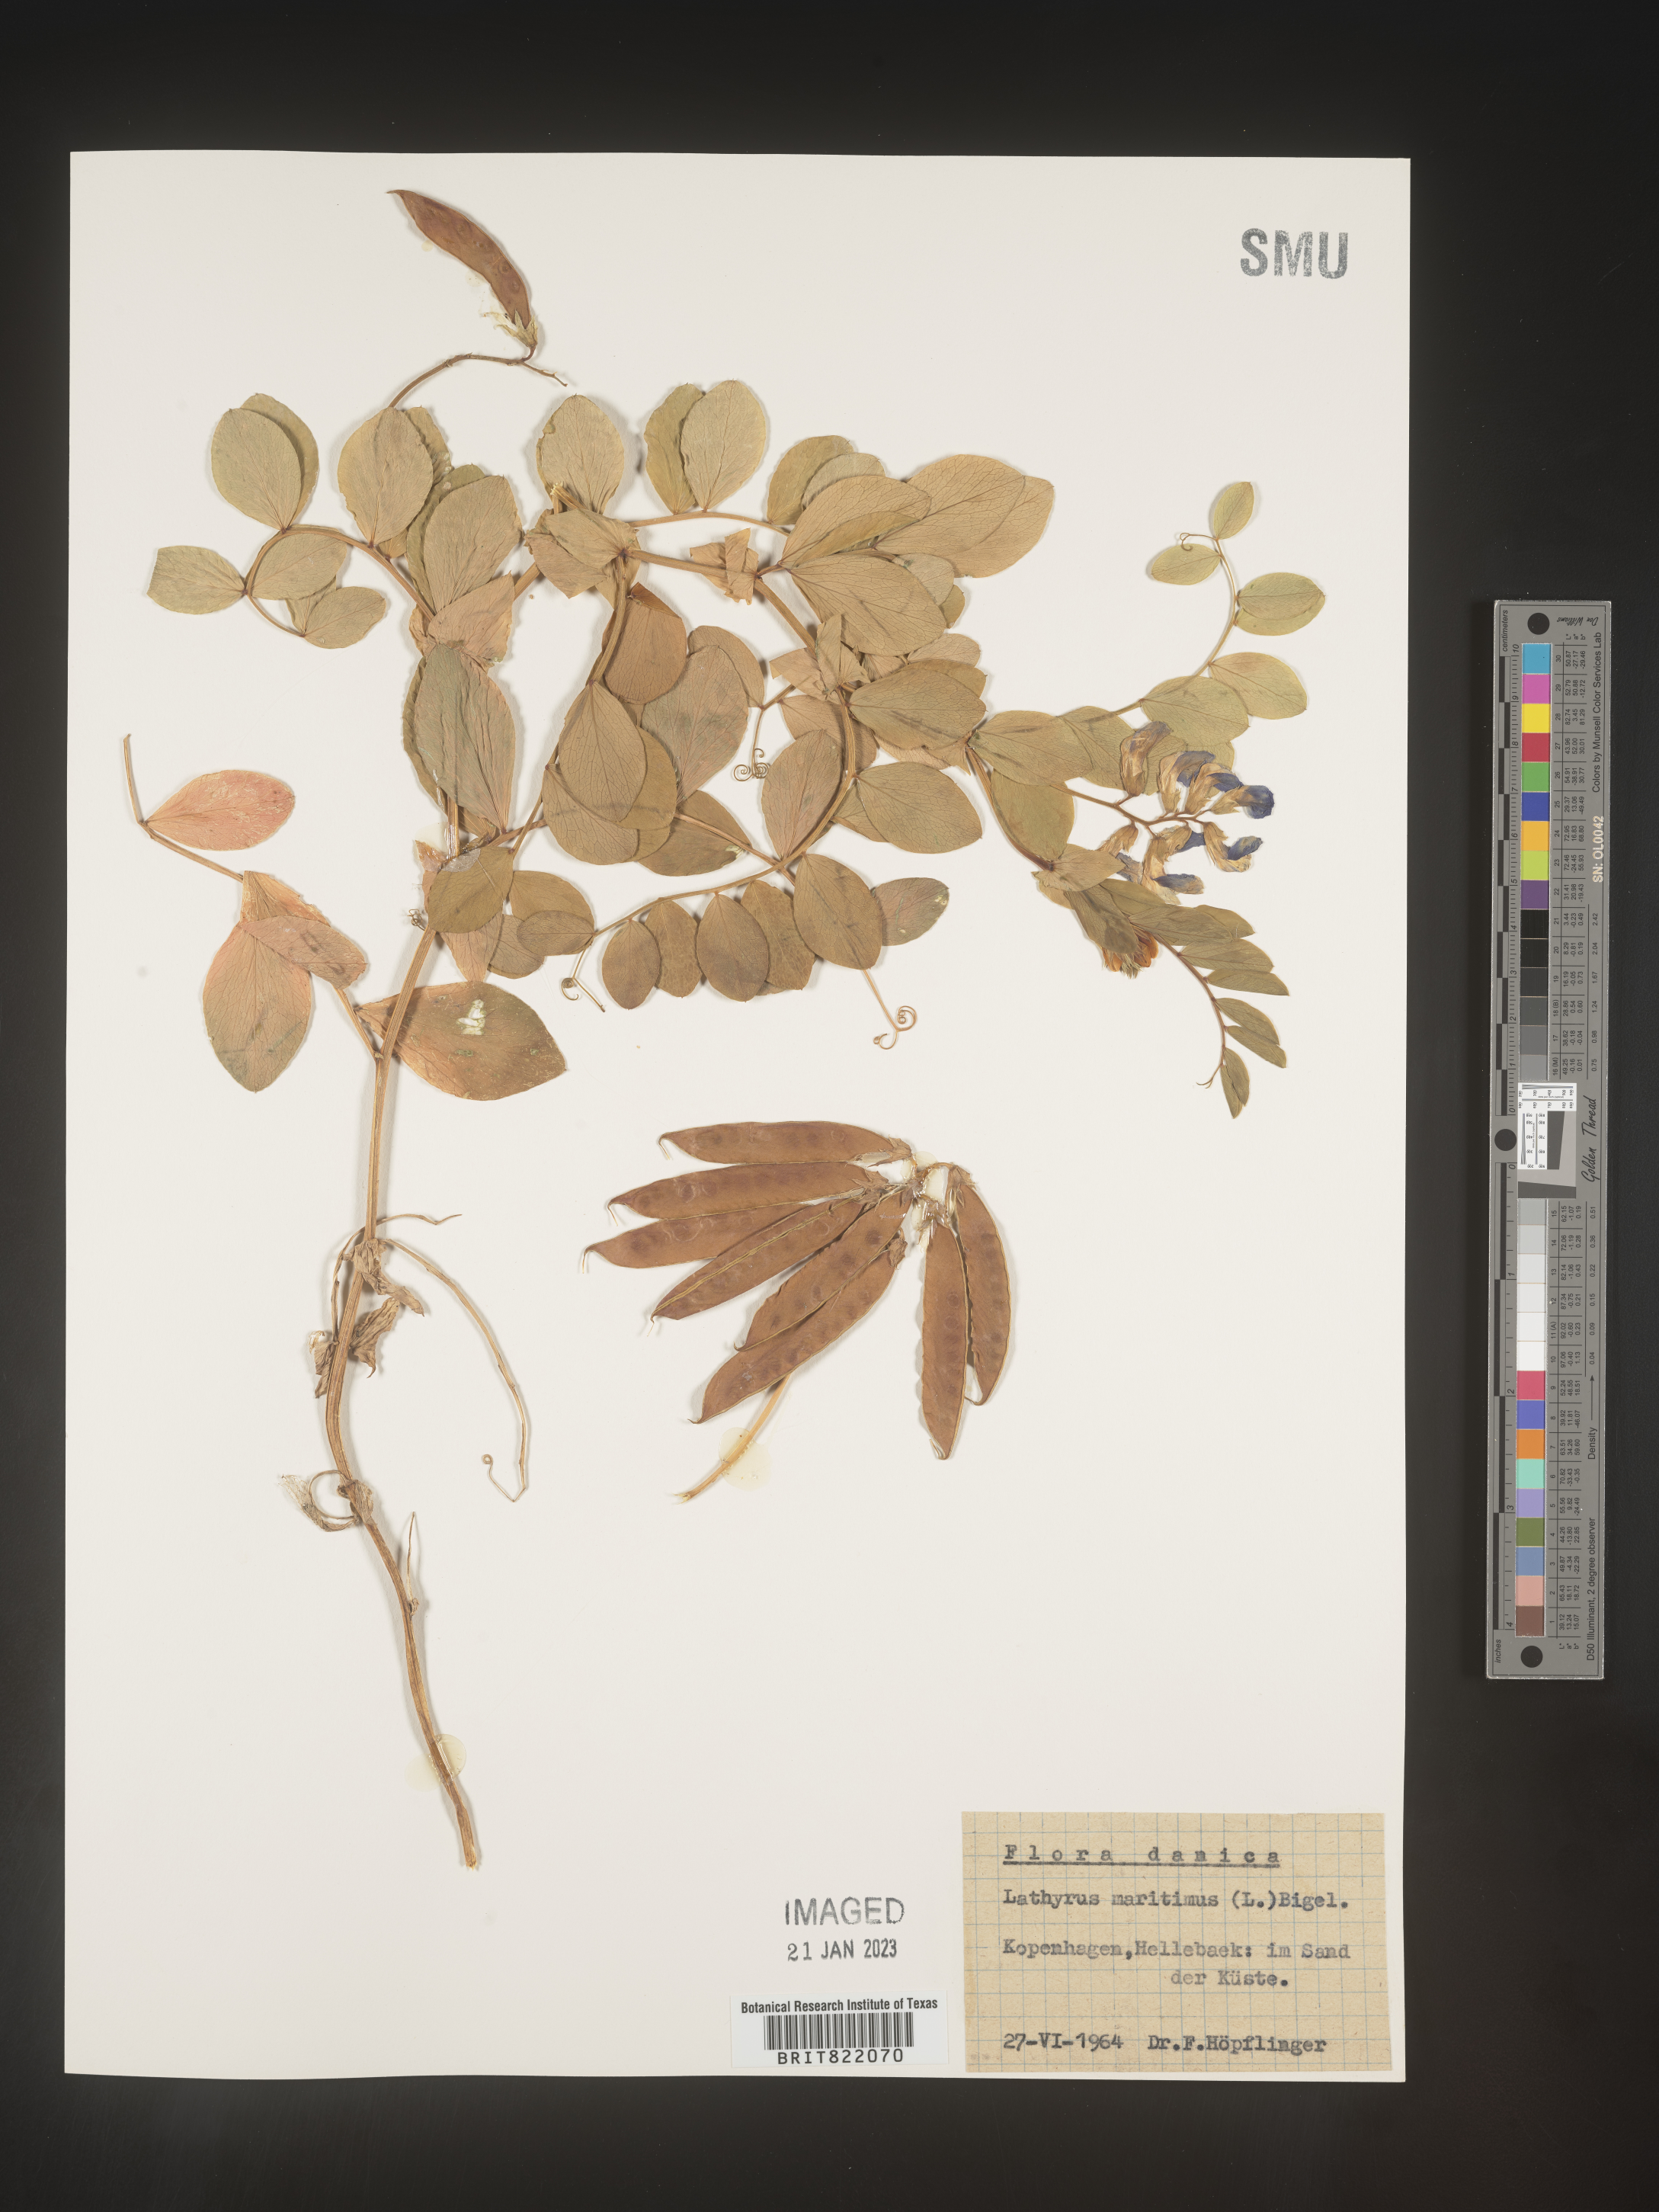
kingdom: Plantae
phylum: Tracheophyta
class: Magnoliopsida
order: Fabales
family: Fabaceae
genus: Lathyrus
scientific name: Lathyrus
